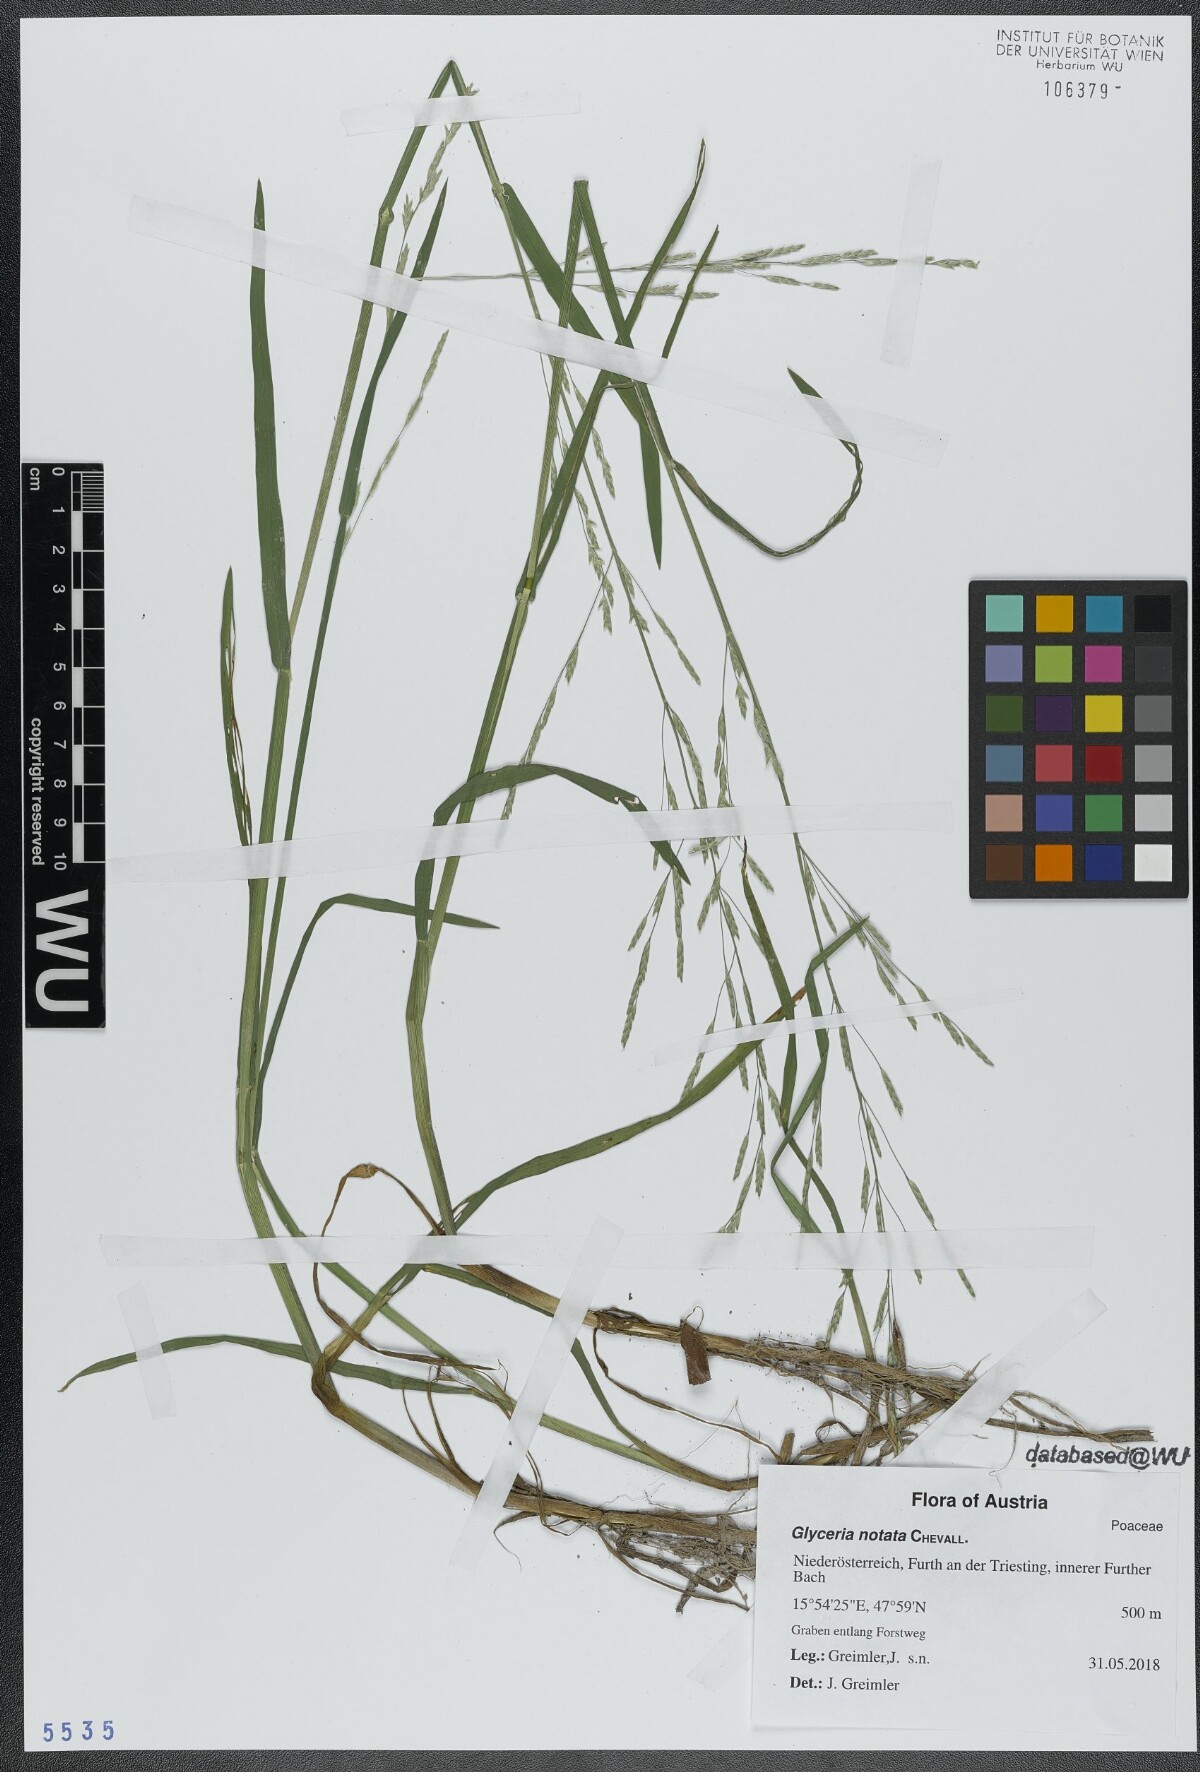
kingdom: Plantae
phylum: Tracheophyta
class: Liliopsida
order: Poales
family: Poaceae
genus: Glyceria
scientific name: Glyceria notata
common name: Plicate sweet-grass
